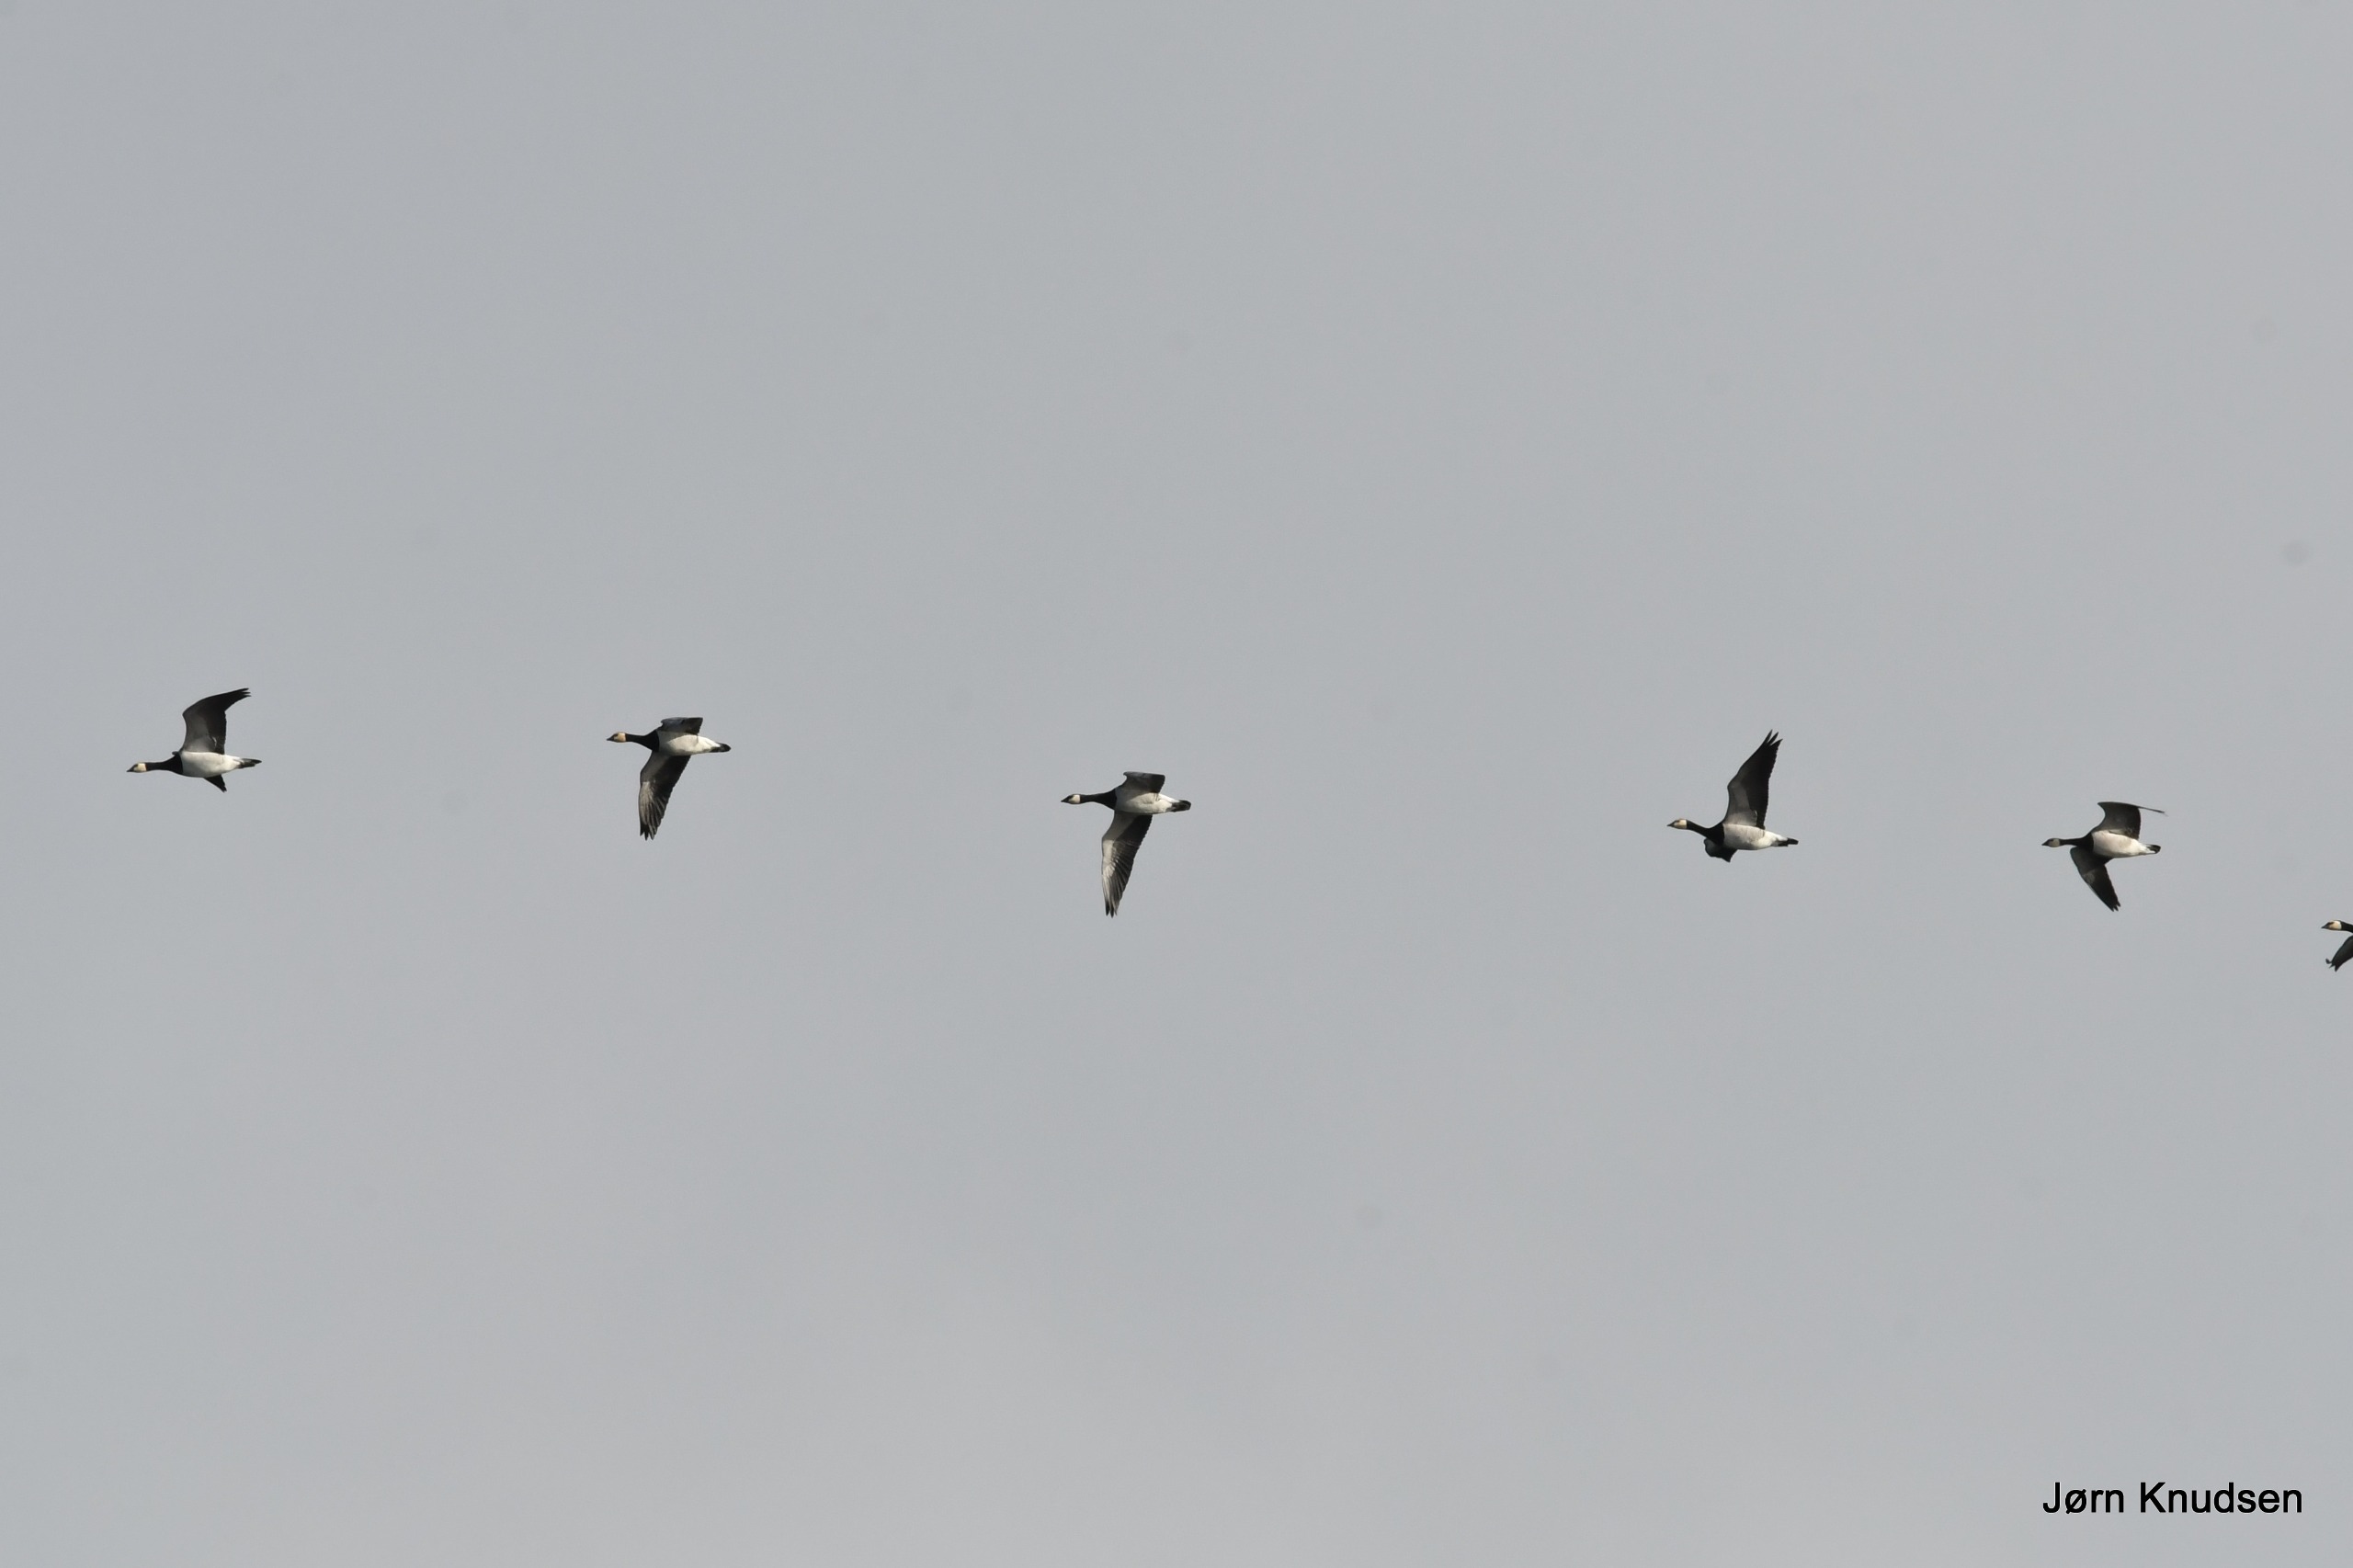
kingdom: Animalia
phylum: Chordata
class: Aves
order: Anseriformes
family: Anatidae
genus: Branta
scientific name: Branta leucopsis
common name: Bramgås
